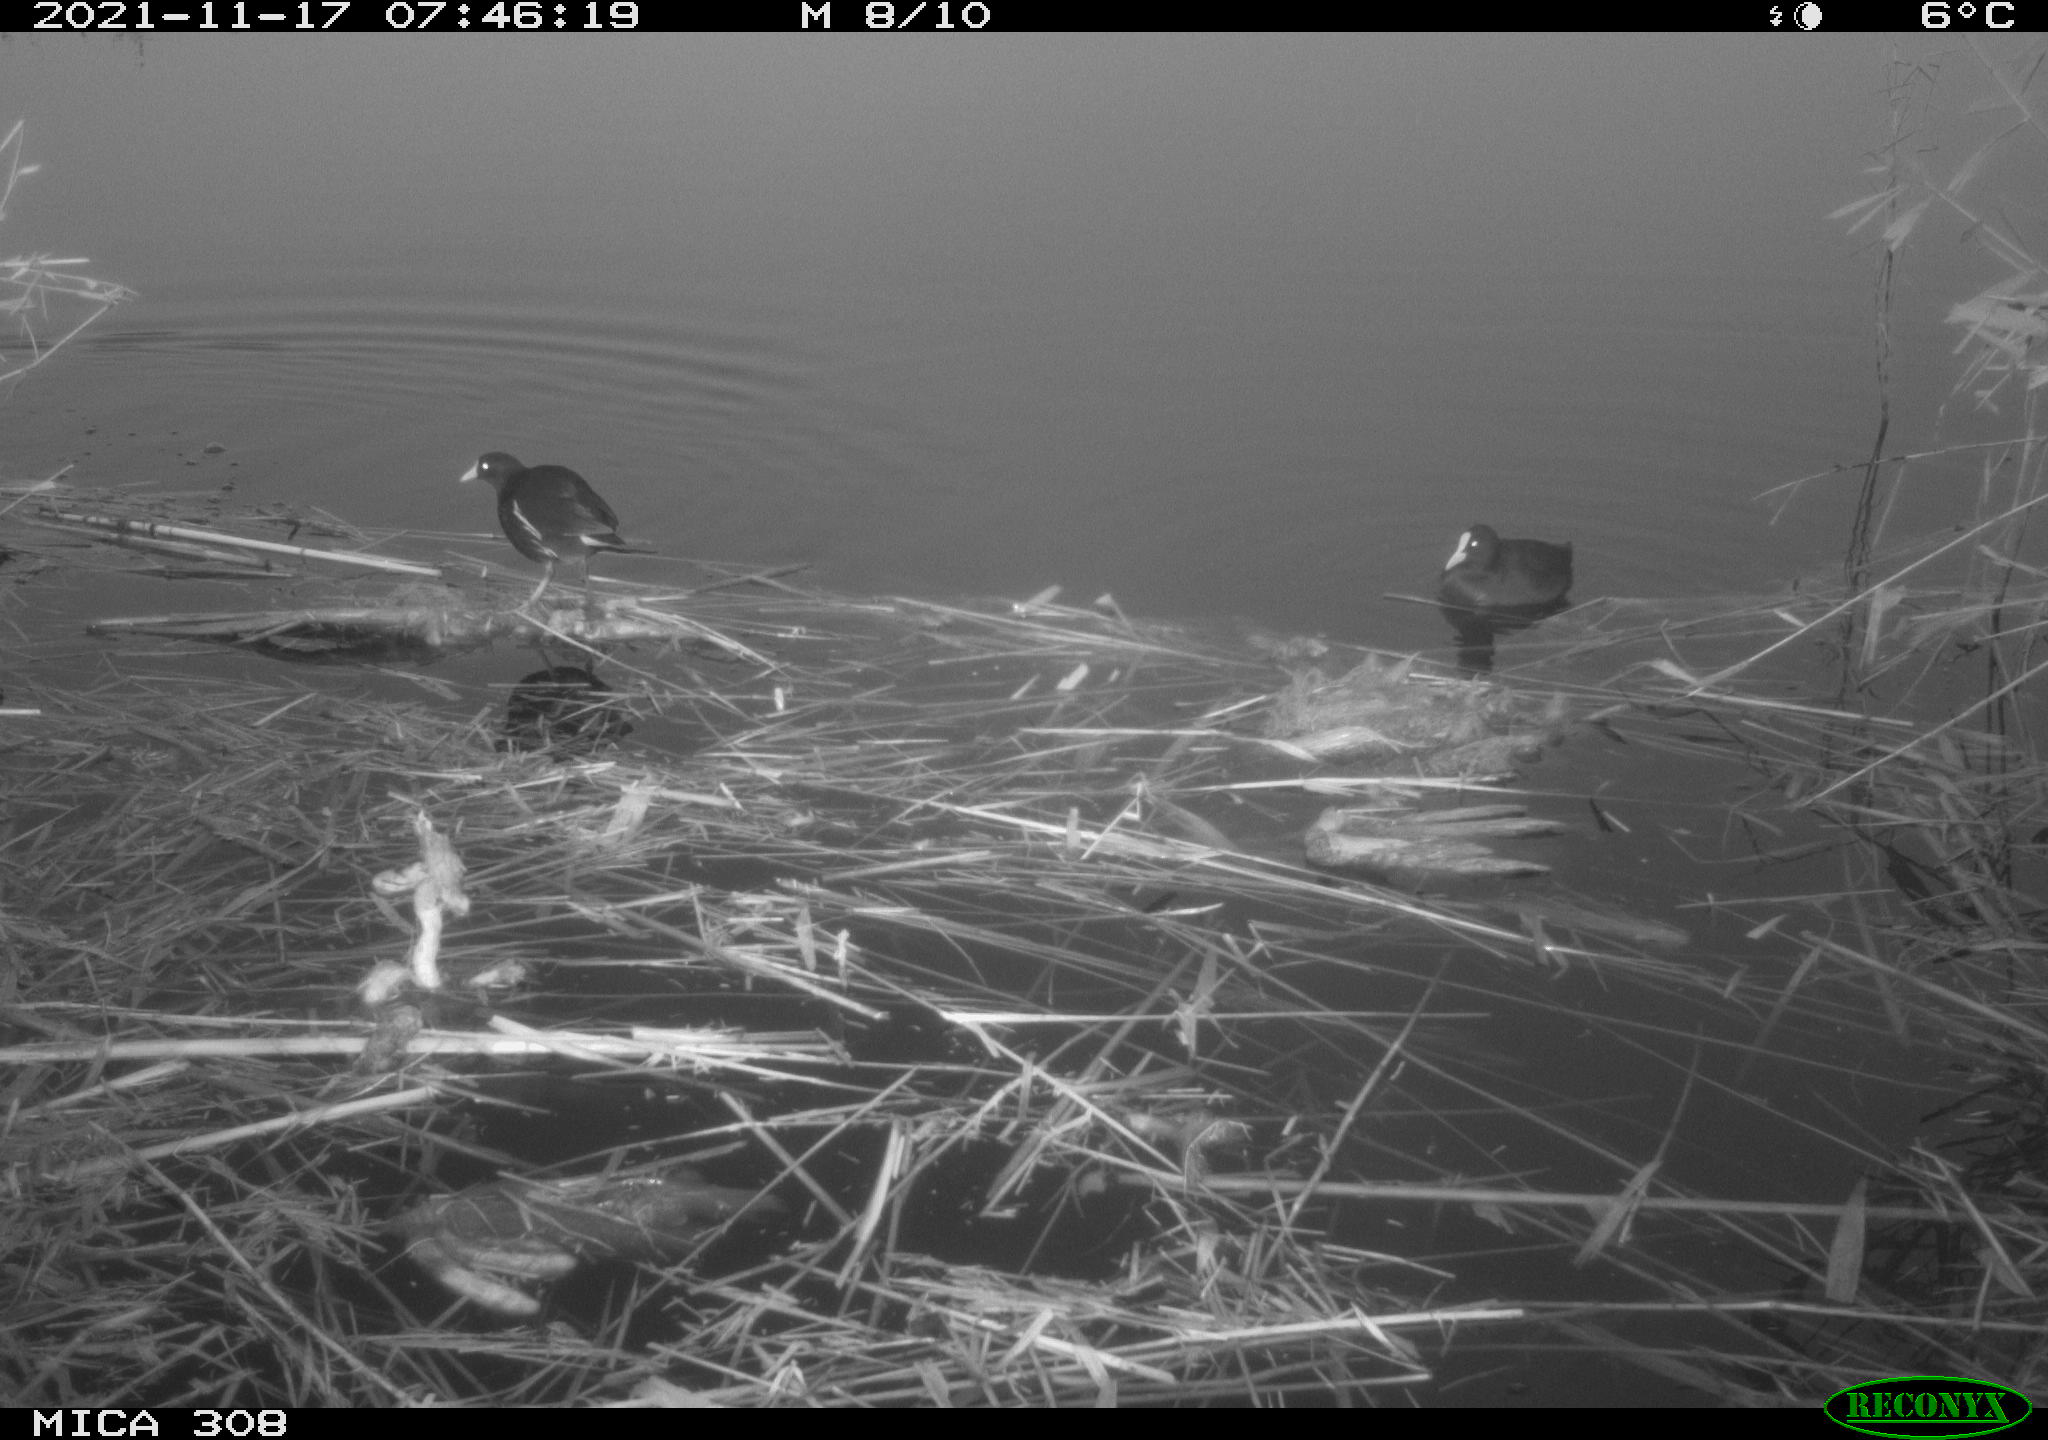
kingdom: Animalia
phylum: Chordata
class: Aves
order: Gruiformes
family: Rallidae
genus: Gallinula
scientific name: Gallinula chloropus
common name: Common moorhen
